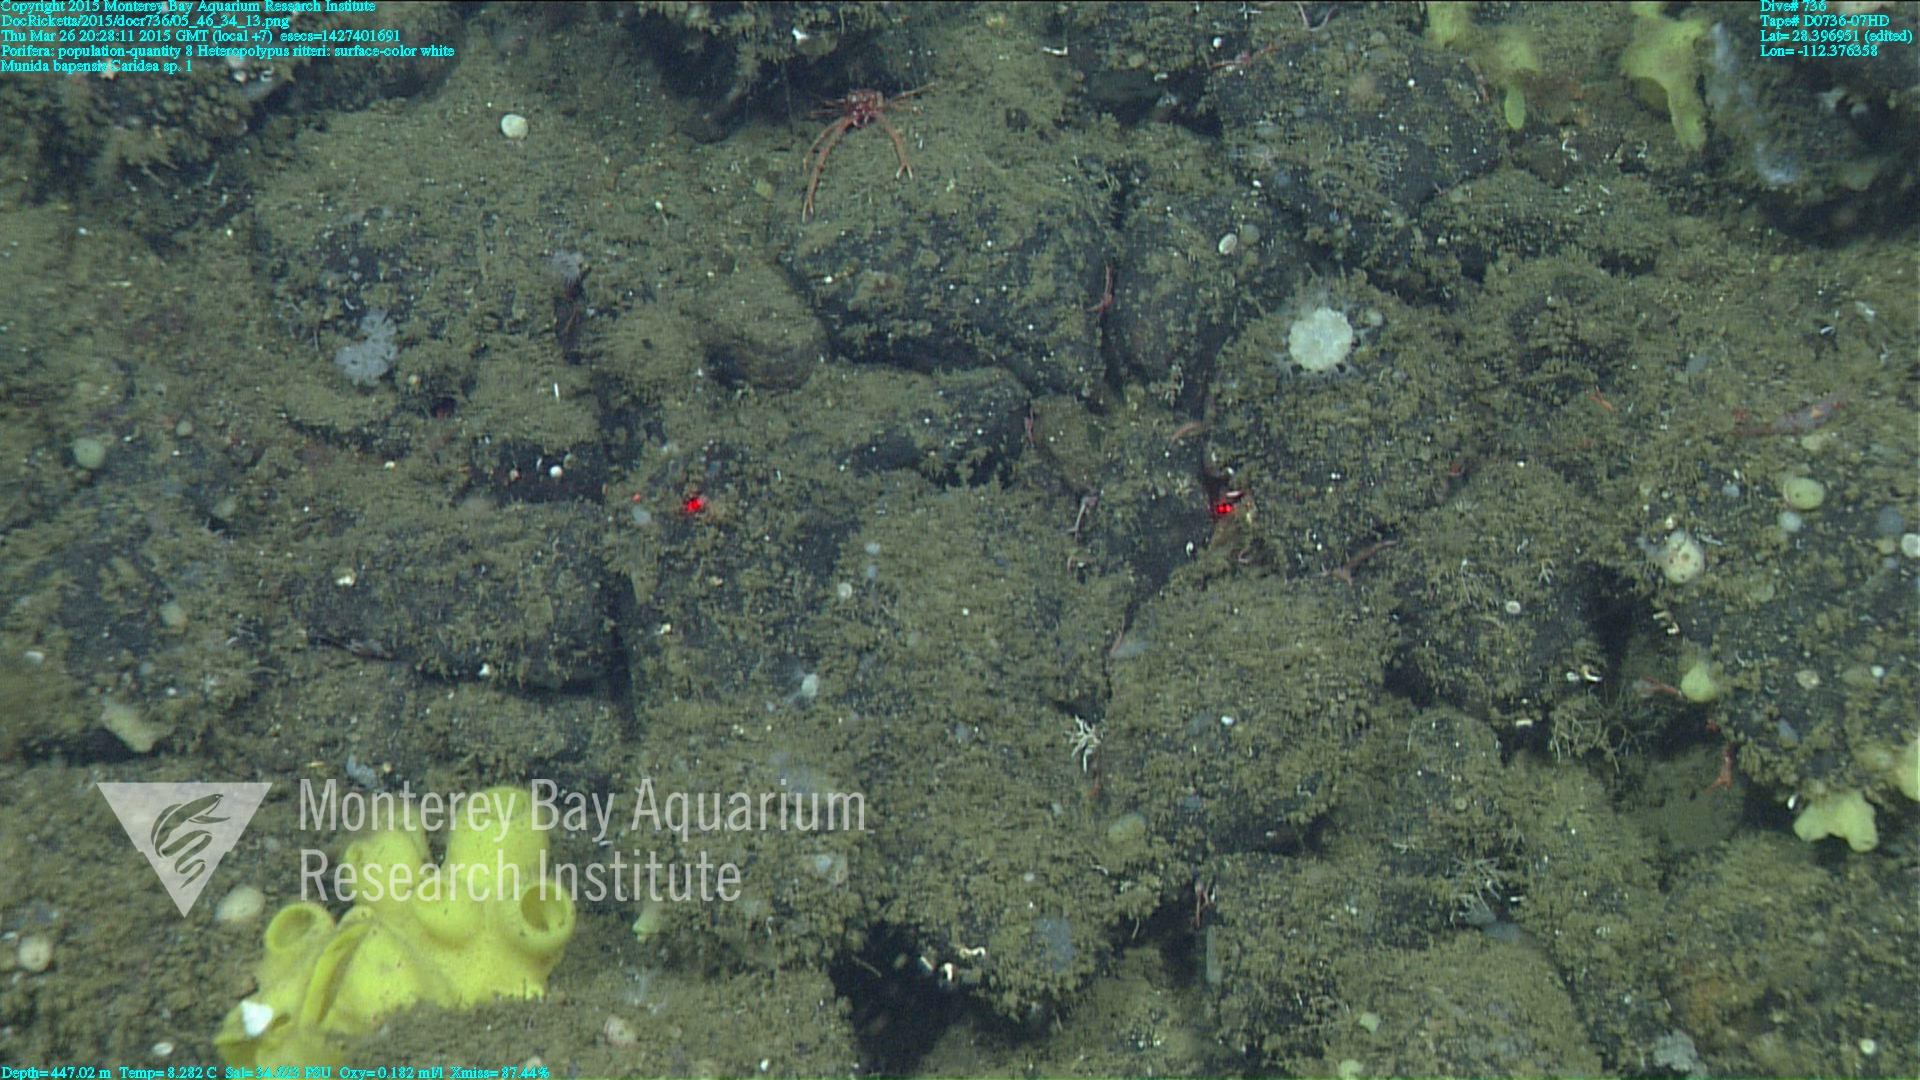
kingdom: Animalia
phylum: Cnidaria
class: Anthozoa
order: Scleralcyonacea
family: Coralliidae
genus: Heteropolypus
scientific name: Heteropolypus ritteri
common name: Ritter's soft coral
